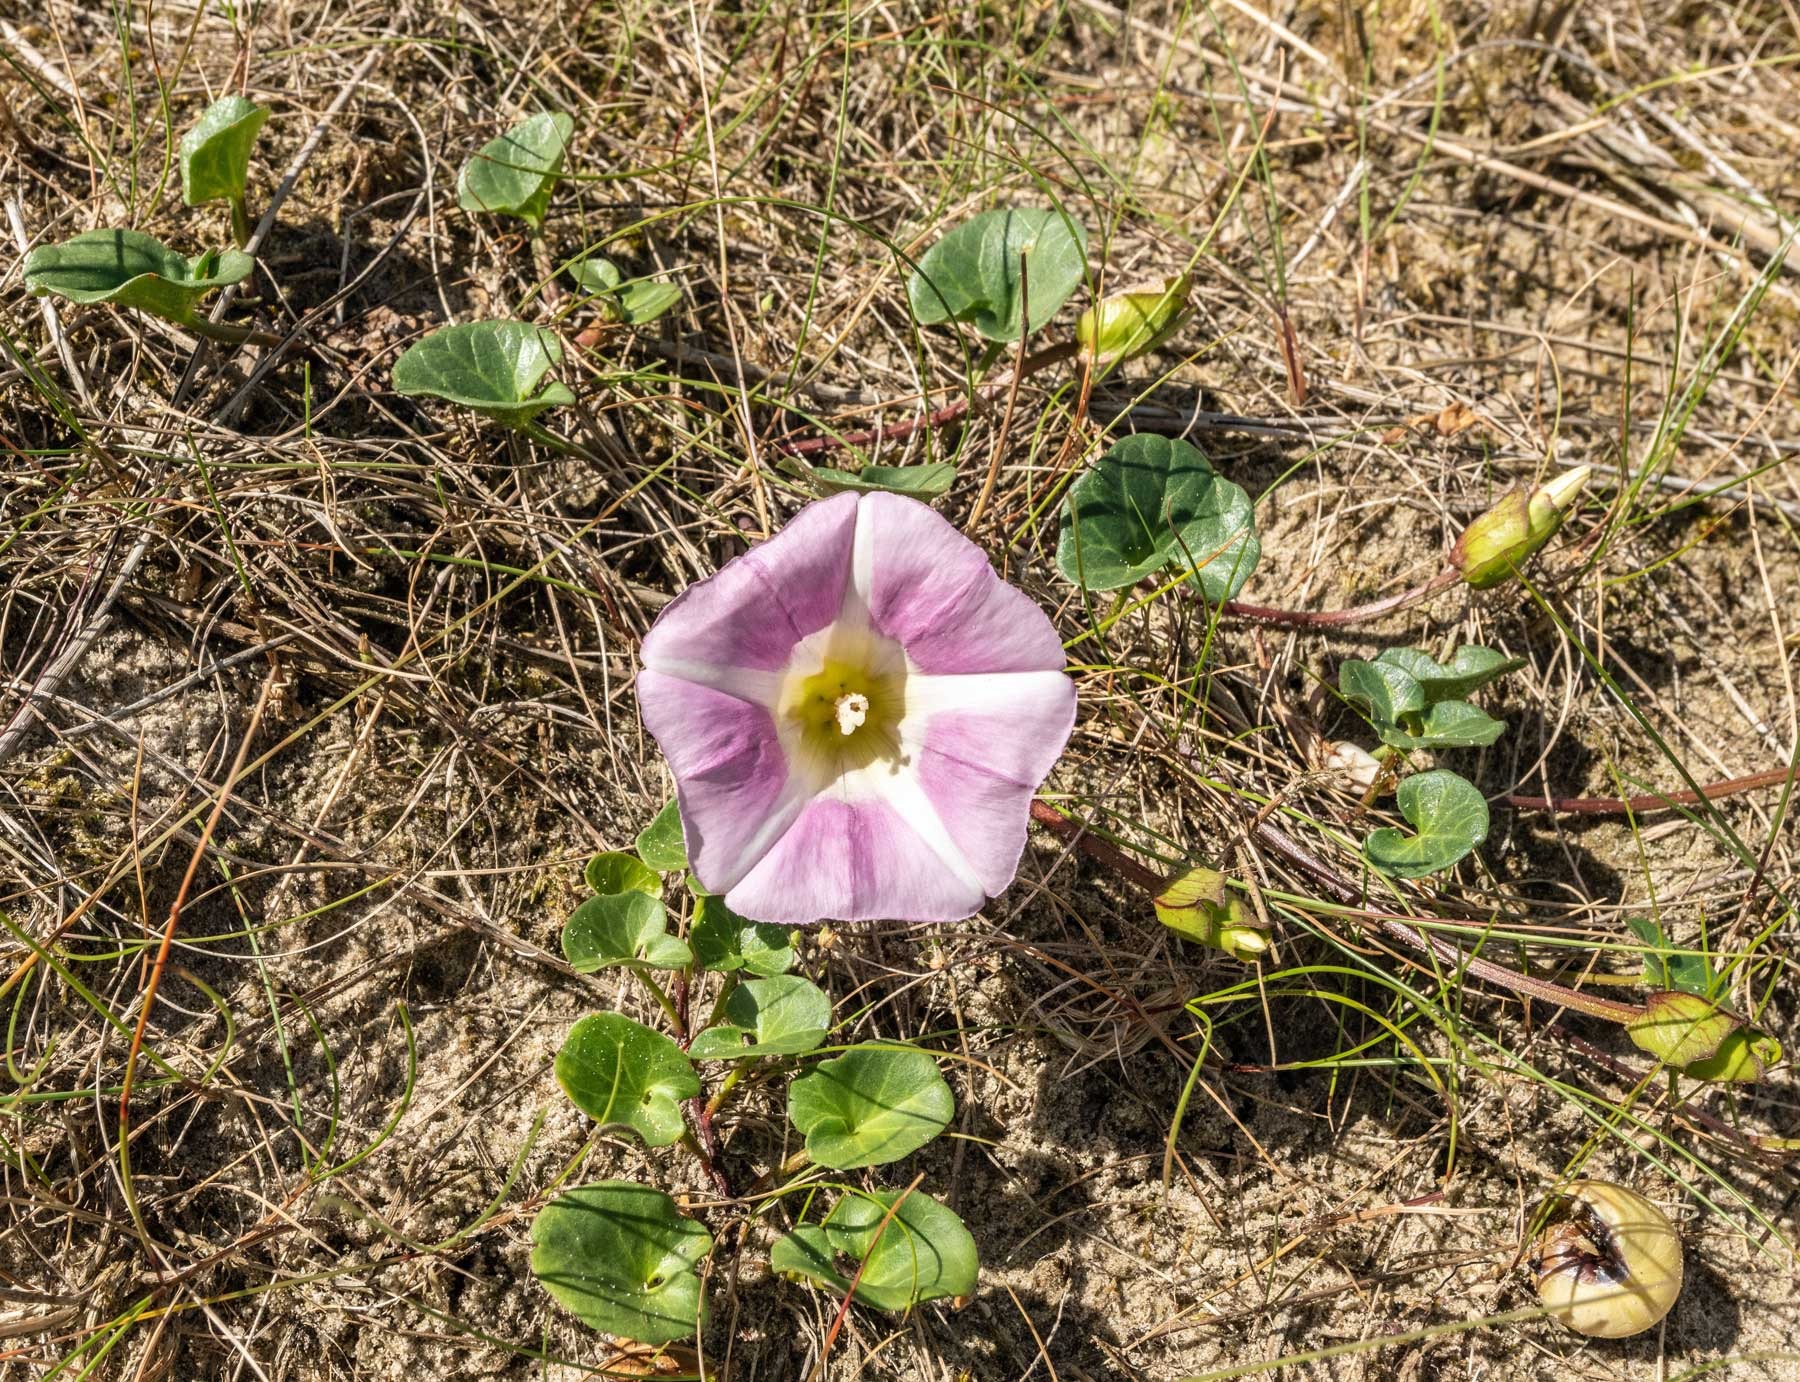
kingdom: Plantae
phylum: Tracheophyta
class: Magnoliopsida
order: Solanales
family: Convolvulaceae
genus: Calystegia
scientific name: Calystegia soldanella
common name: Strand-snerle
